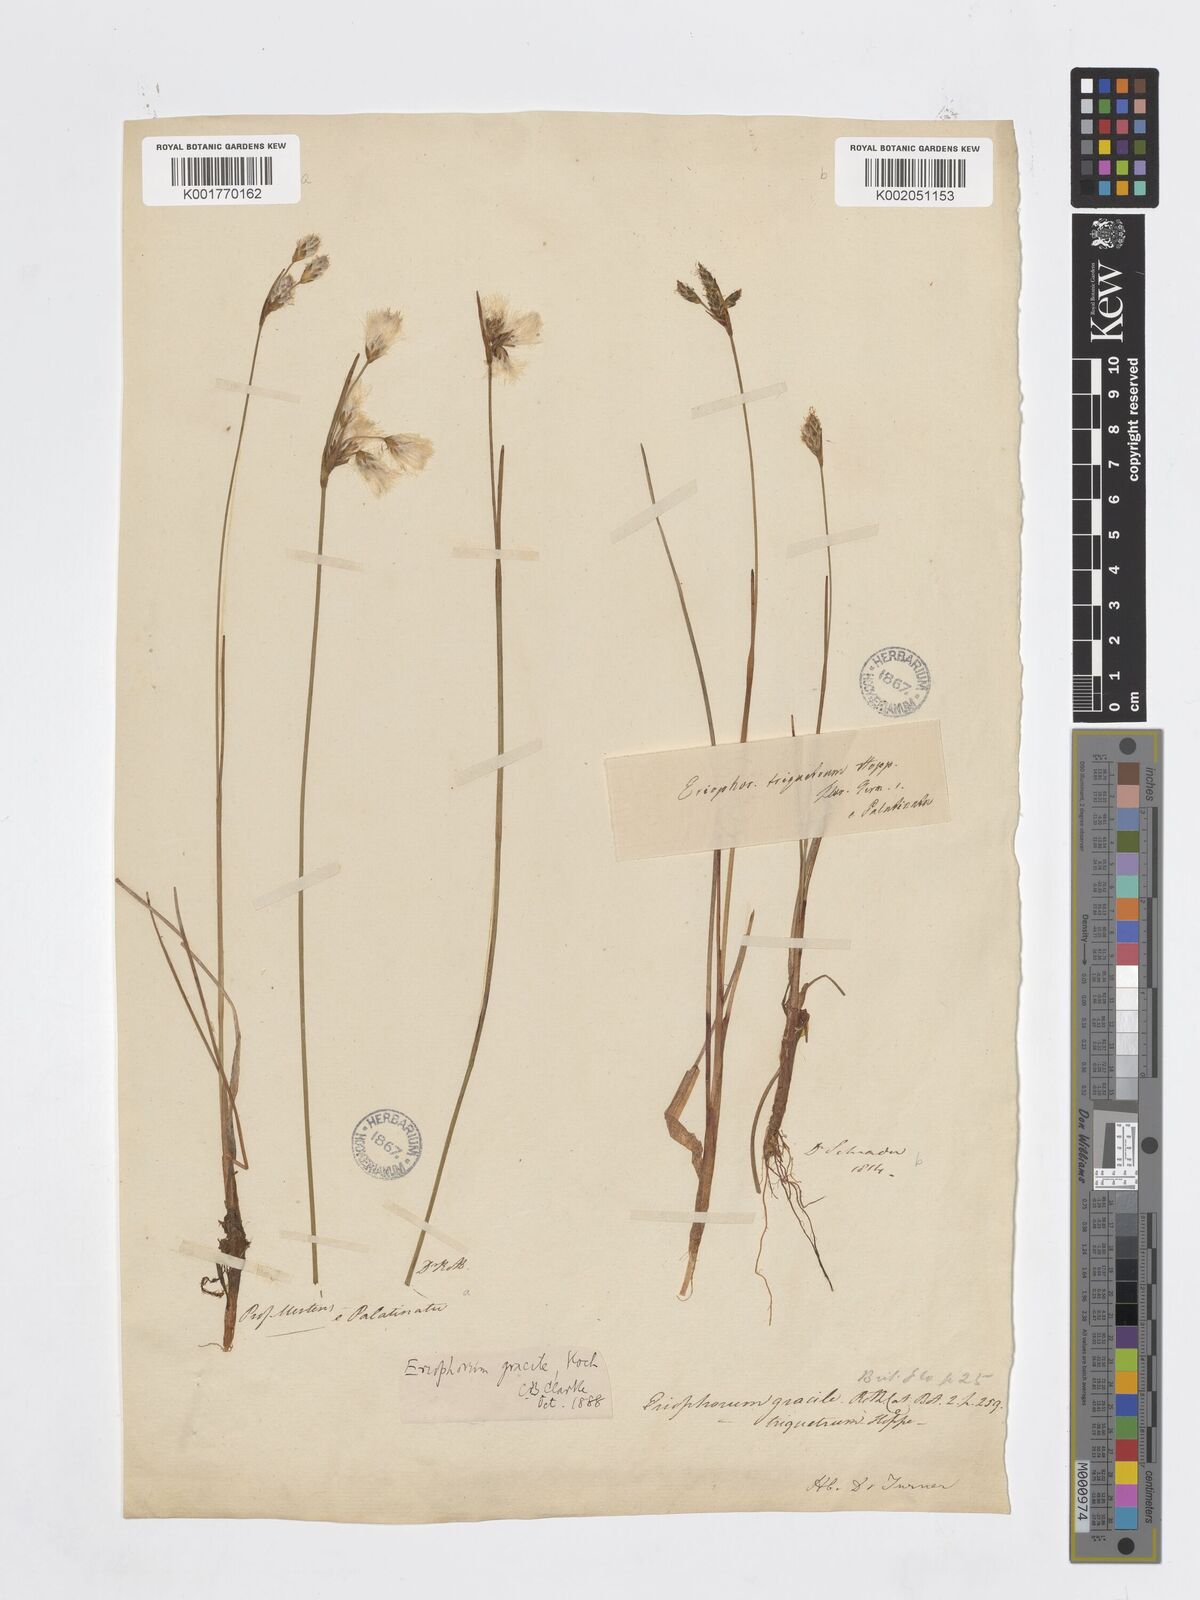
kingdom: Plantae
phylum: Tracheophyta
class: Liliopsida
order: Poales
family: Cyperaceae
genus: Eriophorum
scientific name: Eriophorum gracile
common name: Slender cottongrass
